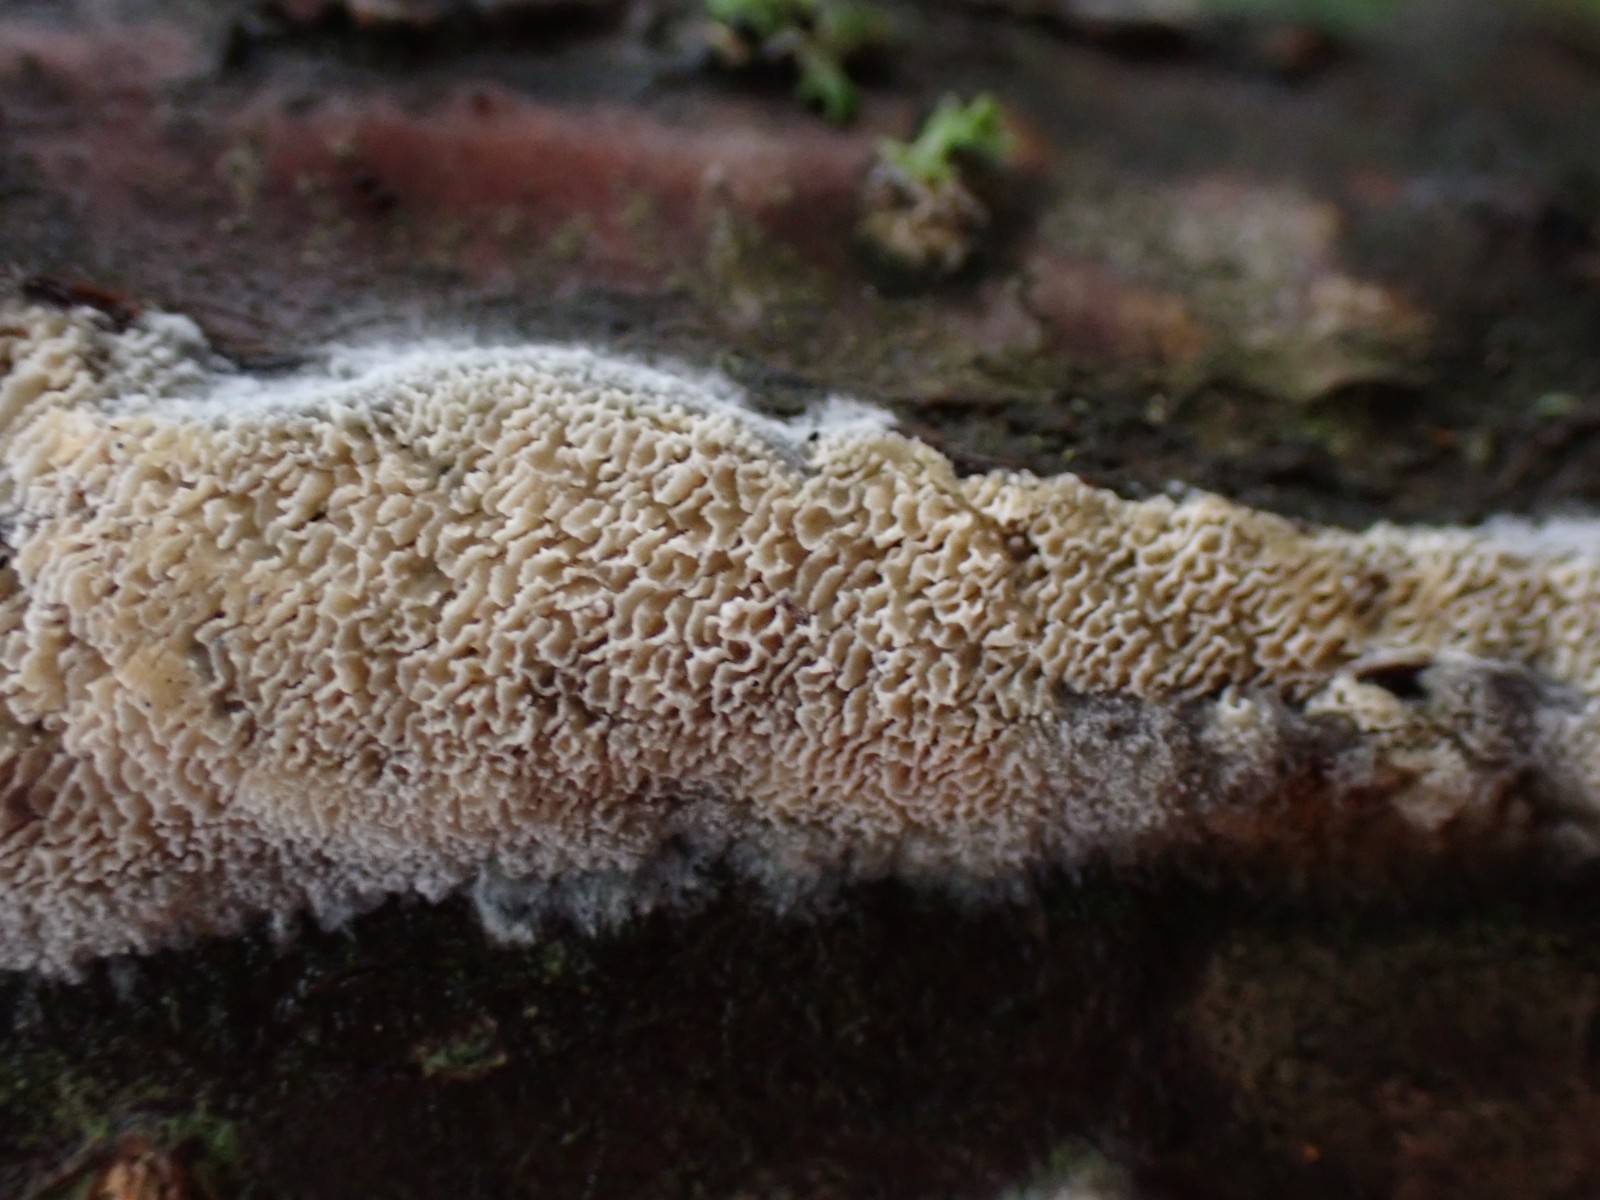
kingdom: Fungi
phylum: Basidiomycota
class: Agaricomycetes
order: Hymenochaetales
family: Schizoporaceae
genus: Xylodon
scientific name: Xylodon subtropicus
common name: labyrint-tandsvamp
